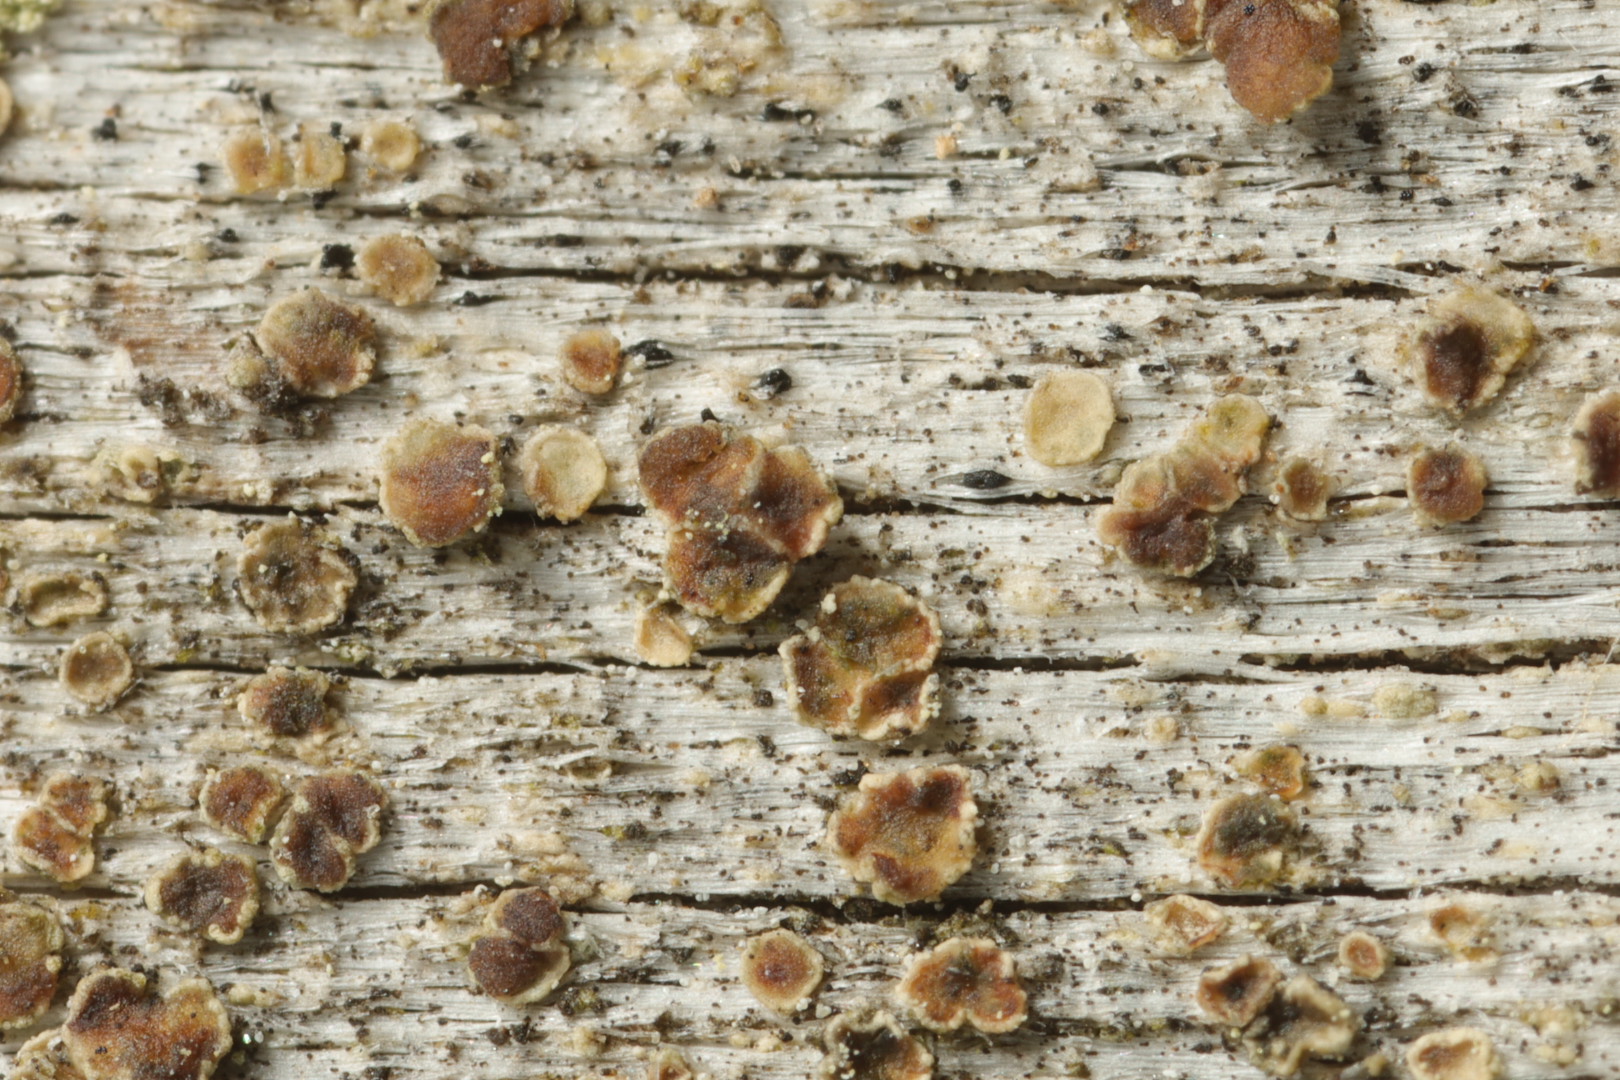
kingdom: Fungi
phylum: Ascomycota
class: Lecanoromycetes
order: Lecanorales
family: Lecanoraceae
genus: Myriolecis
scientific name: Myriolecis
